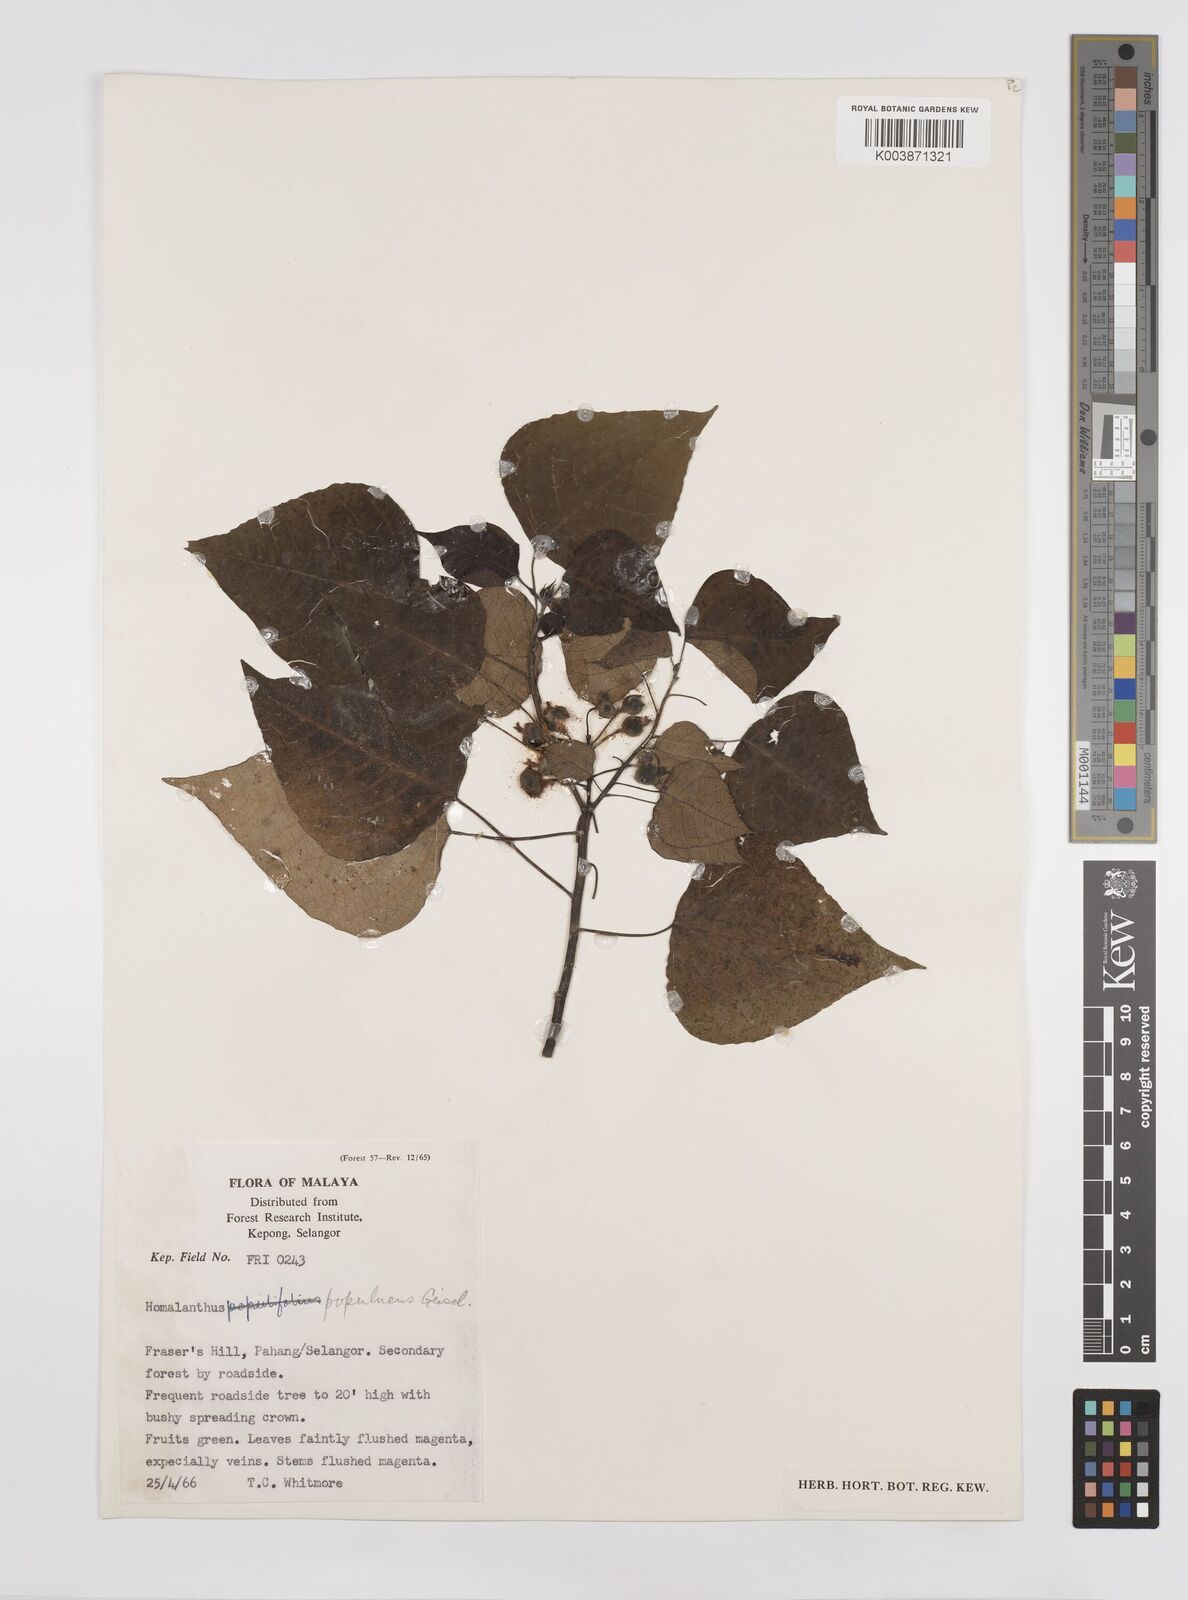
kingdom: Plantae
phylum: Tracheophyta
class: Magnoliopsida
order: Malpighiales
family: Euphorbiaceae
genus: Homalanthus
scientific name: Homalanthus populneus
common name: Spurge
